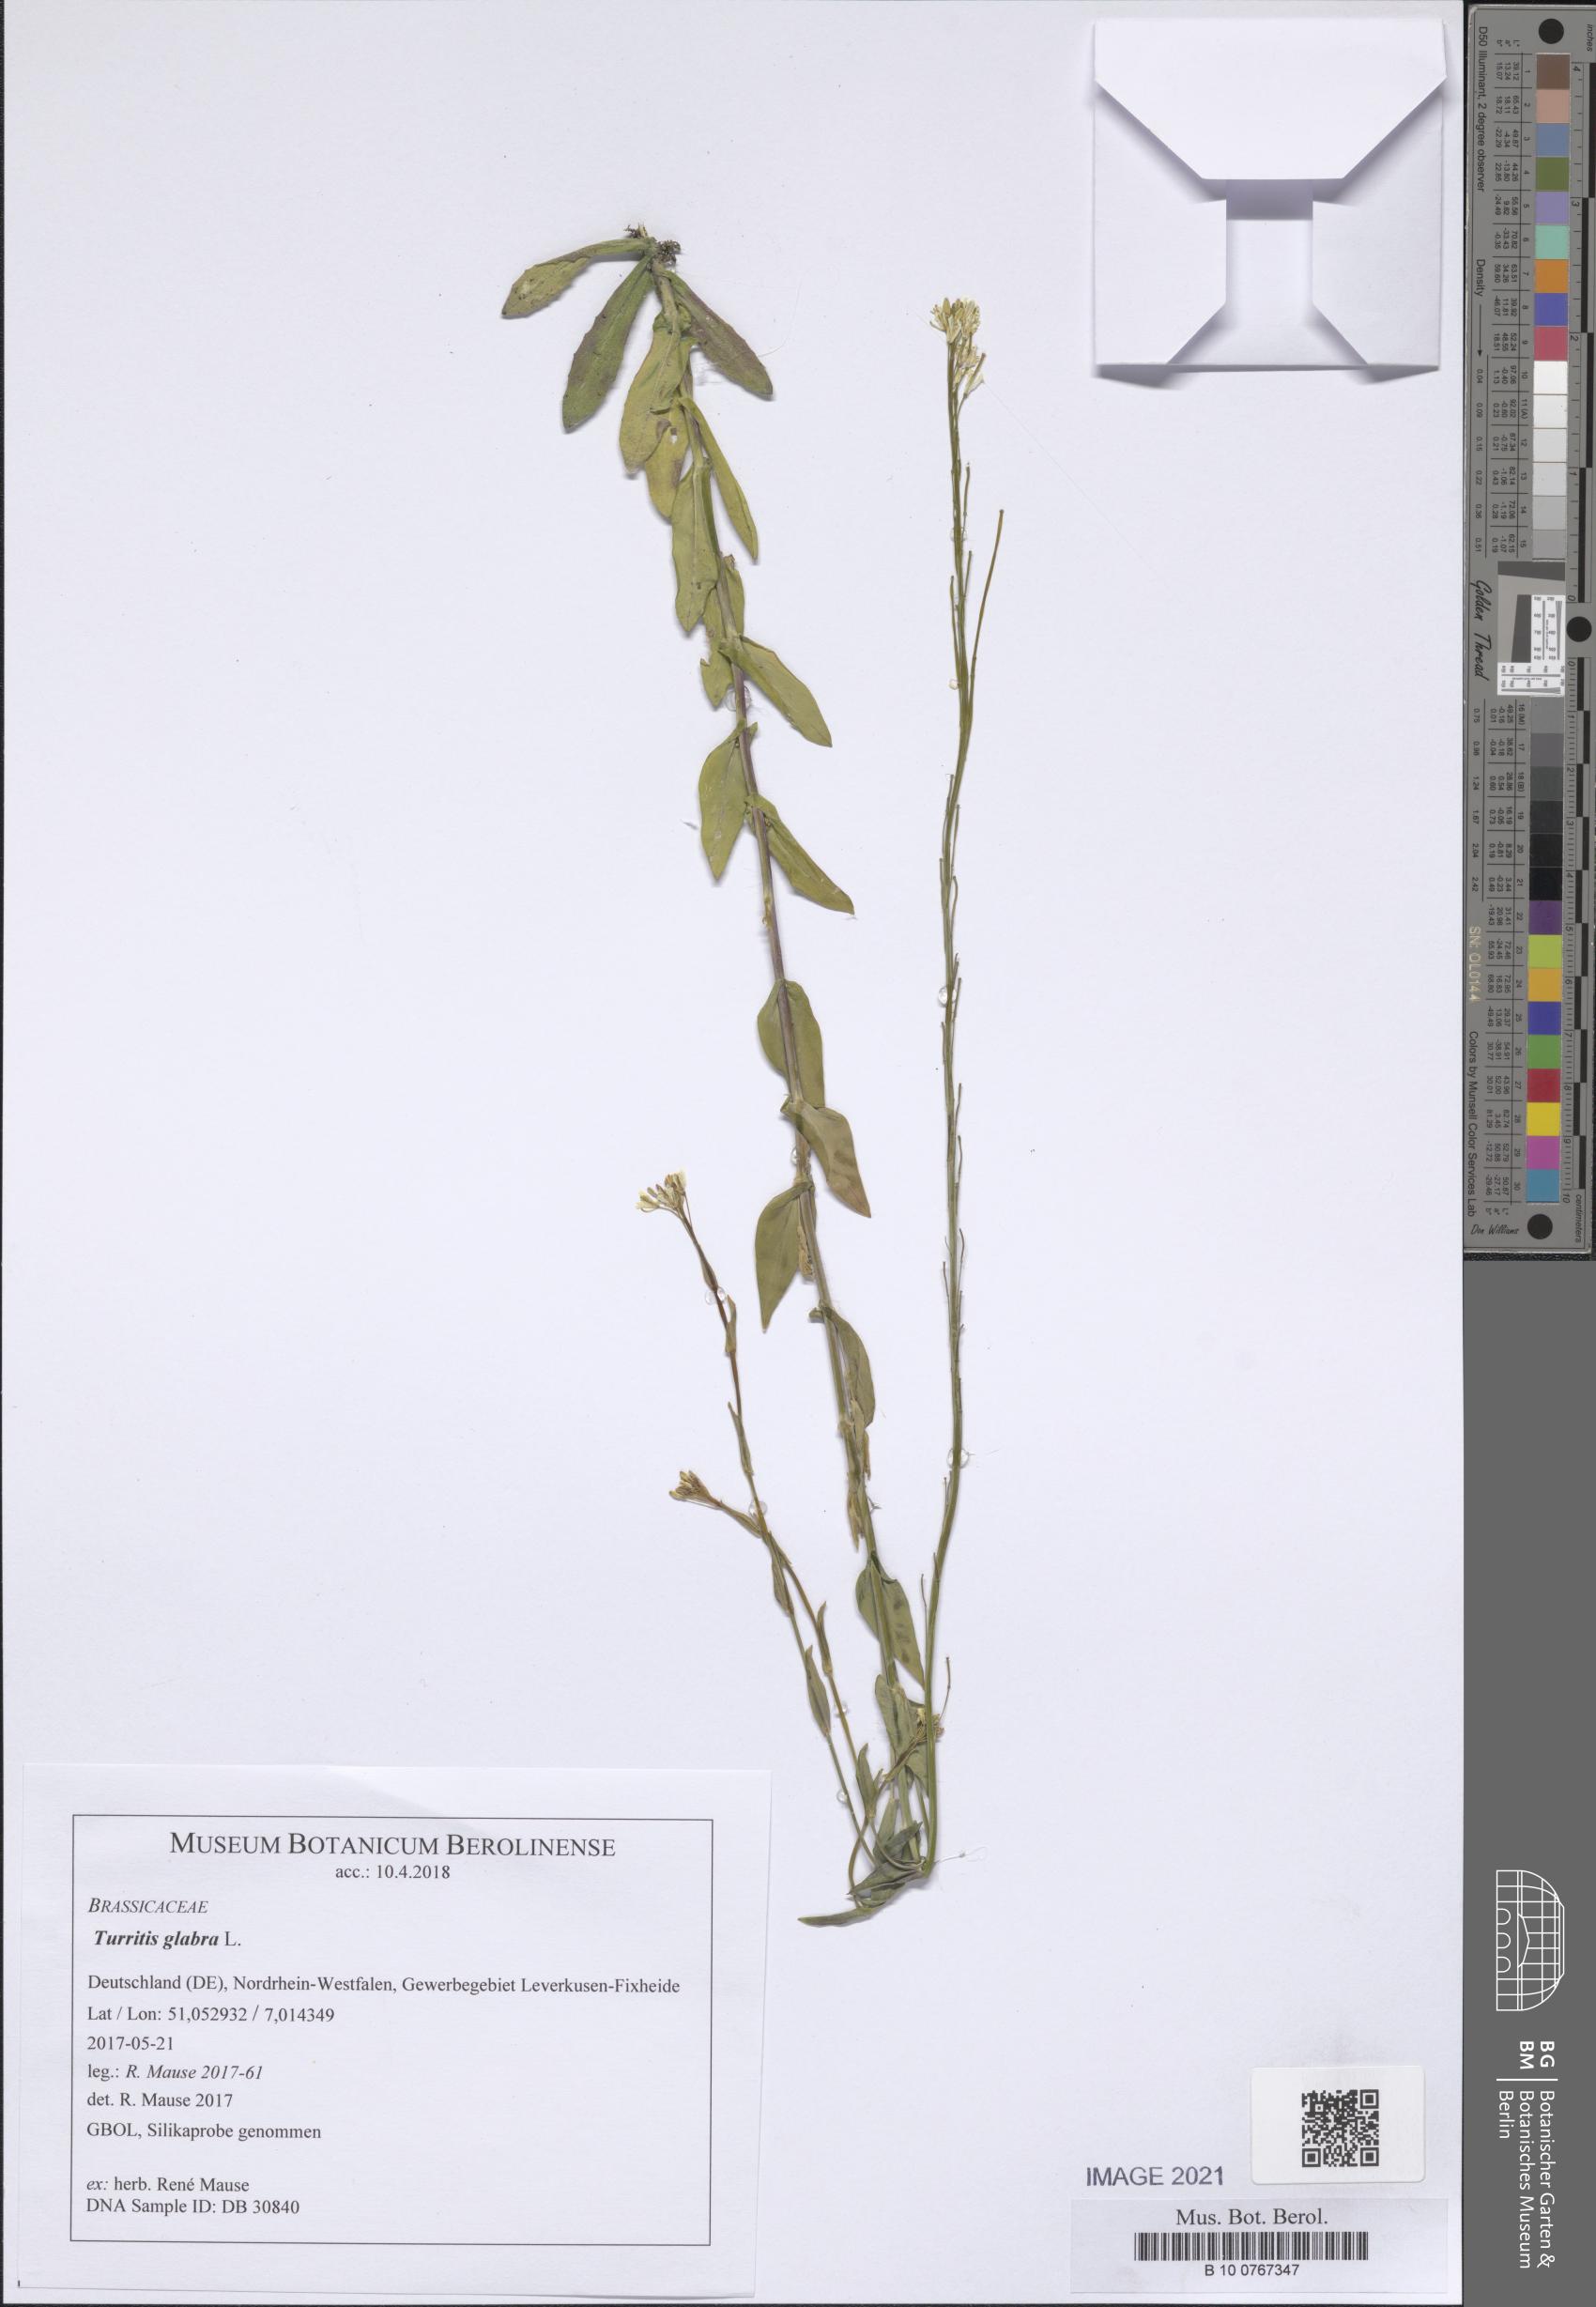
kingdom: Plantae
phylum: Tracheophyta
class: Magnoliopsida
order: Brassicales
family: Brassicaceae
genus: Turritis
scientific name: Turritis glabra
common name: Tower rockcress
